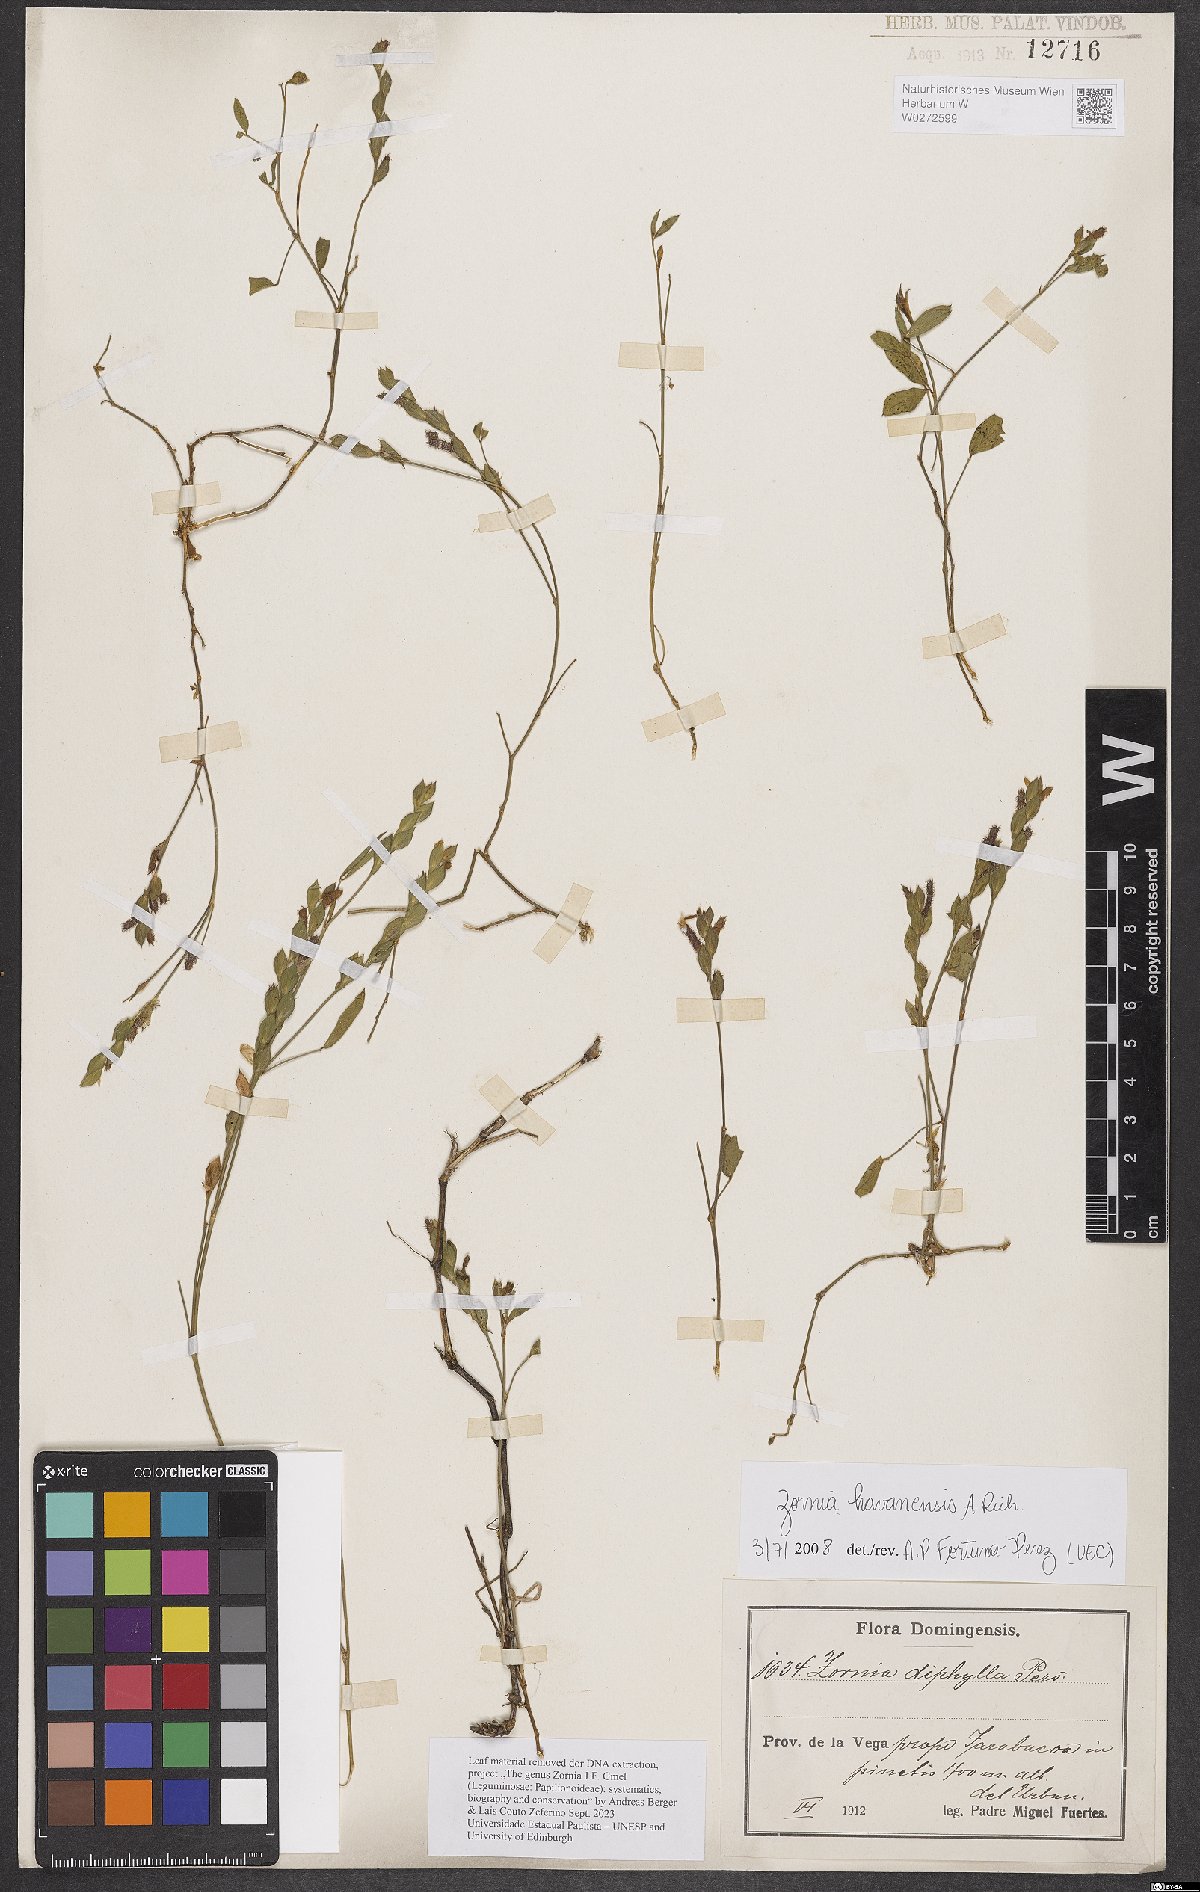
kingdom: Plantae
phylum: Tracheophyta
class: Magnoliopsida
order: Fabales
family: Fabaceae
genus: Zornia
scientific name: Zornia reticulata
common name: Reticulate viperina
